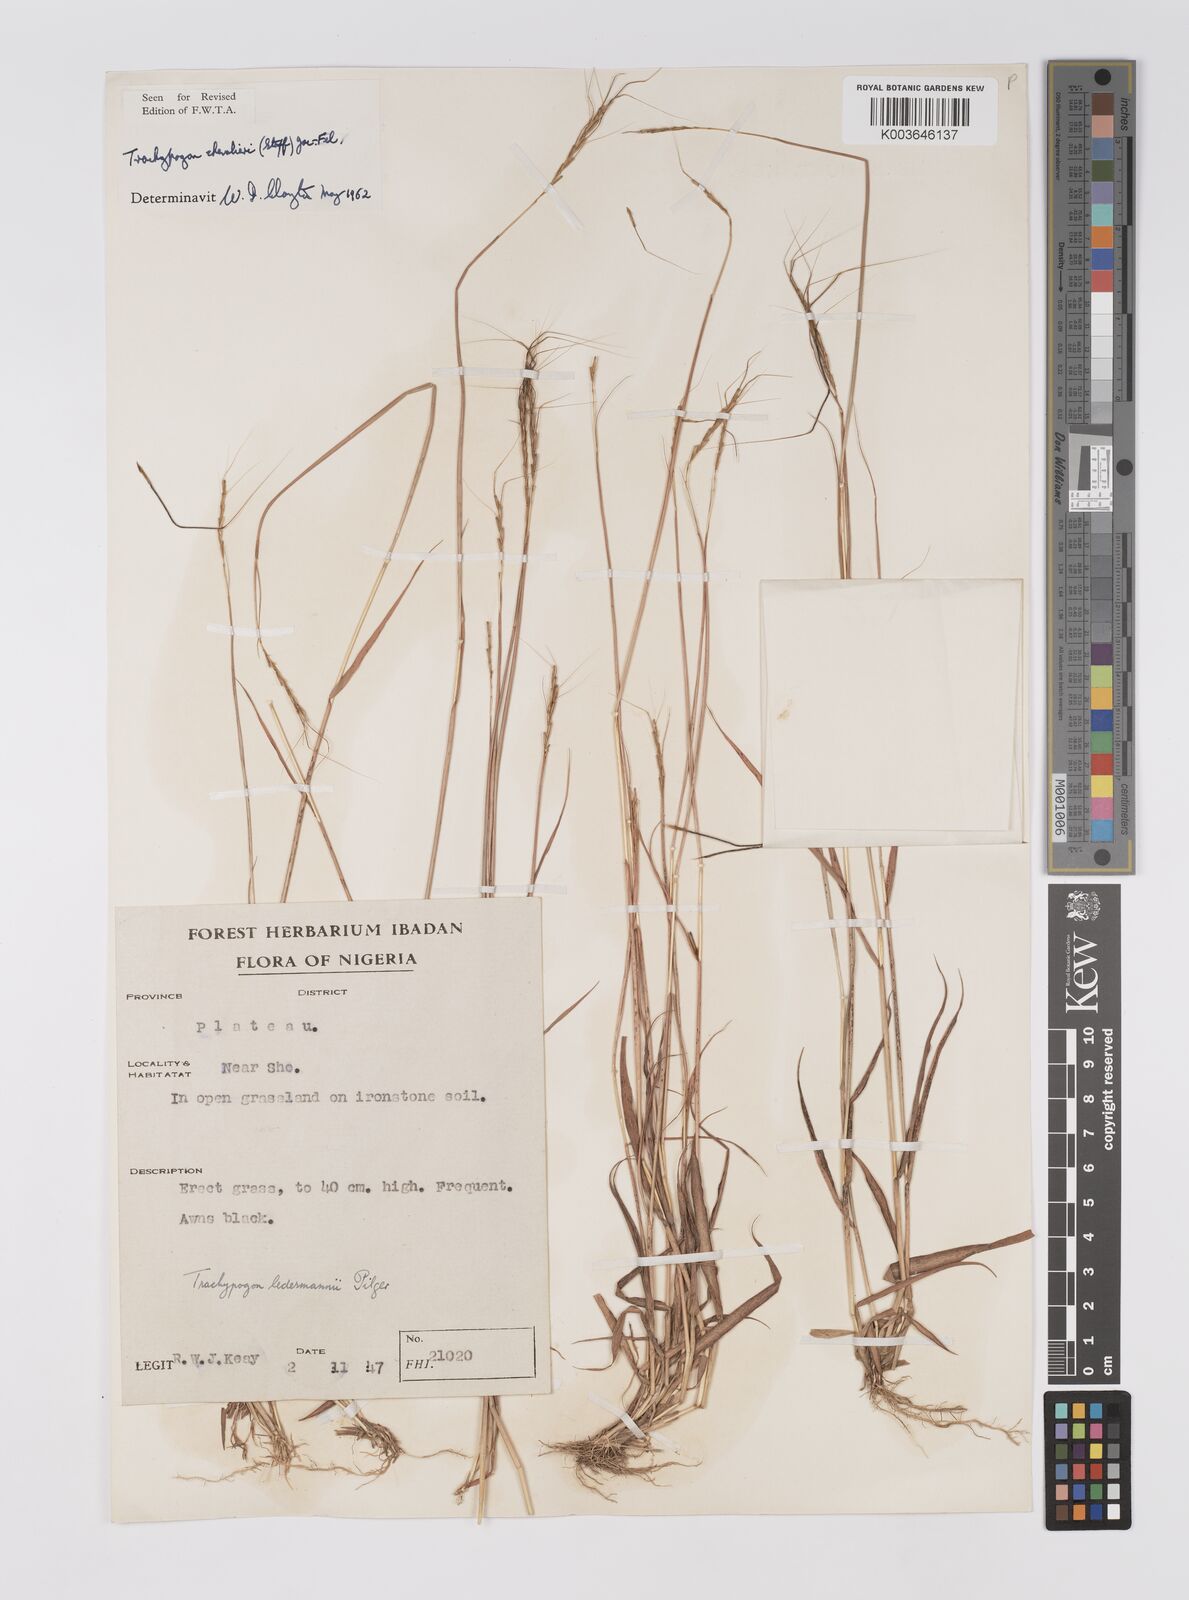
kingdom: Plantae
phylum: Tracheophyta
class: Liliopsida
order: Poales
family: Poaceae
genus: Trachypogon
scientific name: Trachypogon chevalieri
